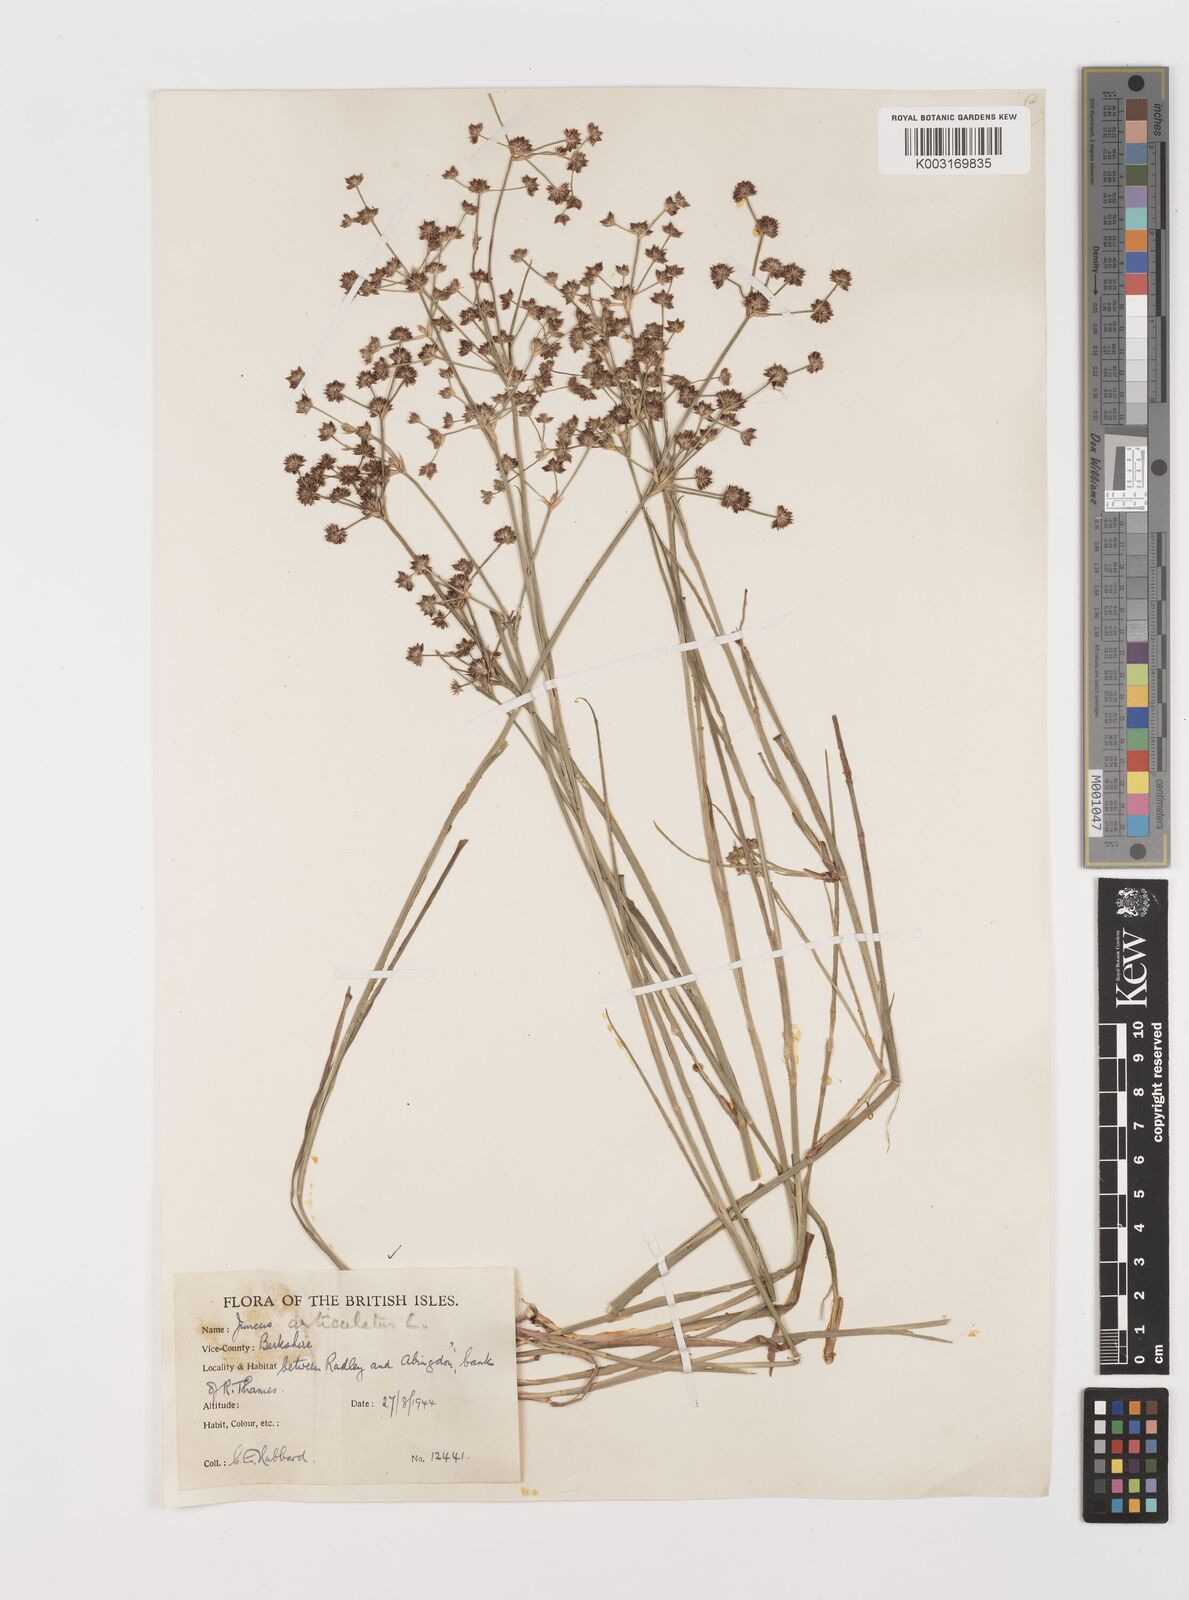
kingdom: Plantae
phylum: Tracheophyta
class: Liliopsida
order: Poales
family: Juncaceae
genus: Juncus
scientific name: Juncus articulatus
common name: Jointed rush
